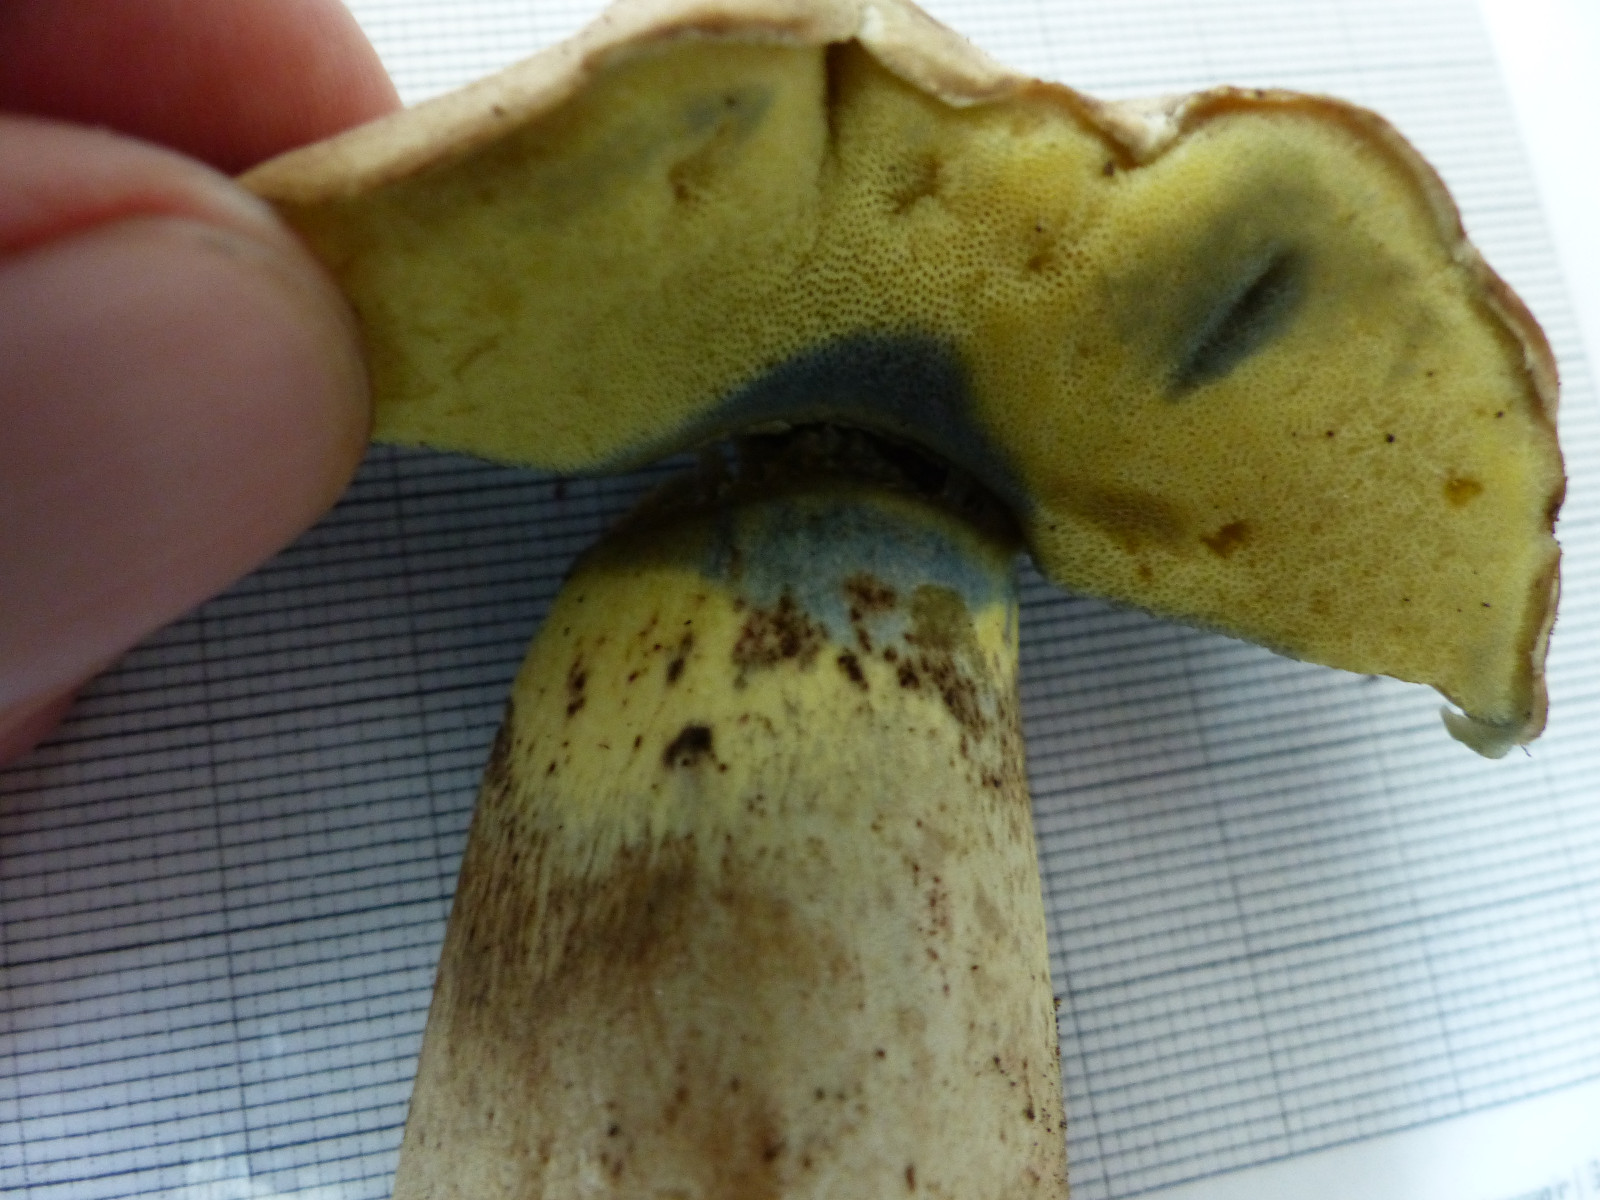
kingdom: Fungi
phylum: Basidiomycota
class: Agaricomycetes
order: Boletales
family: Boletaceae
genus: Caloboletus
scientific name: Caloboletus radicans
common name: rod-rørhat
